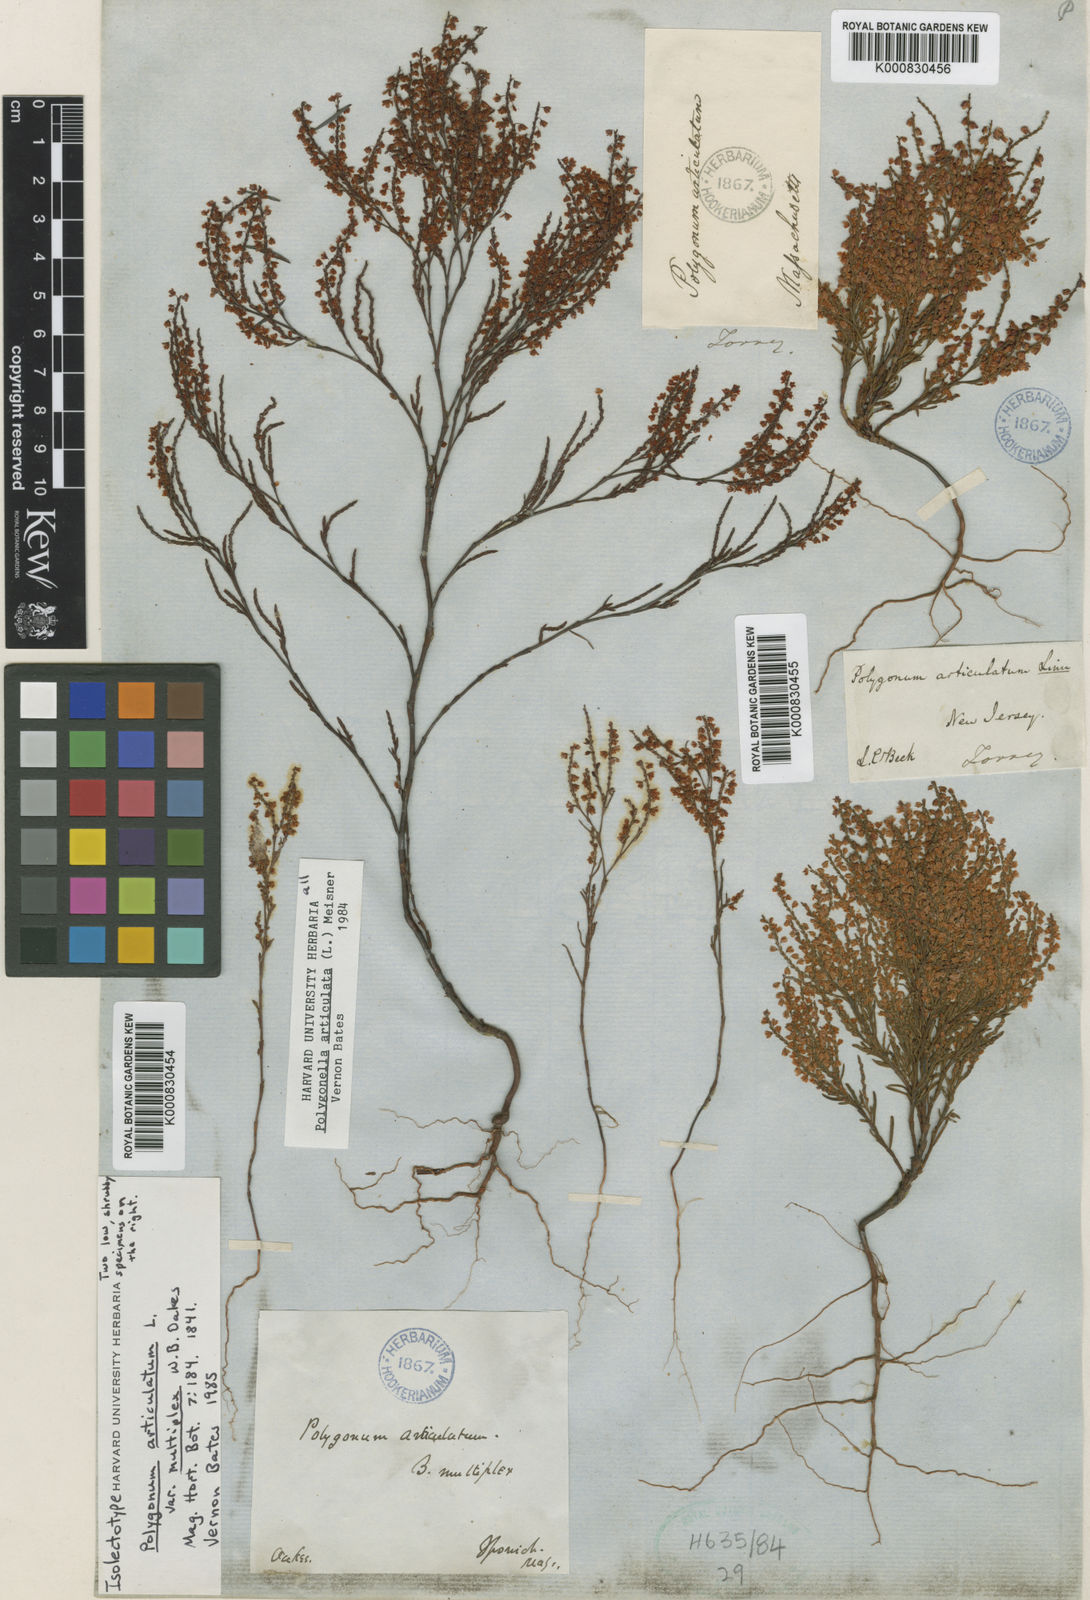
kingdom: Plantae
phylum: Tracheophyta
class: Magnoliopsida
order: Caryophyllales
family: Polygonaceae
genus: Polygonella
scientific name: Polygonella articulata
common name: Coastal jointweed
